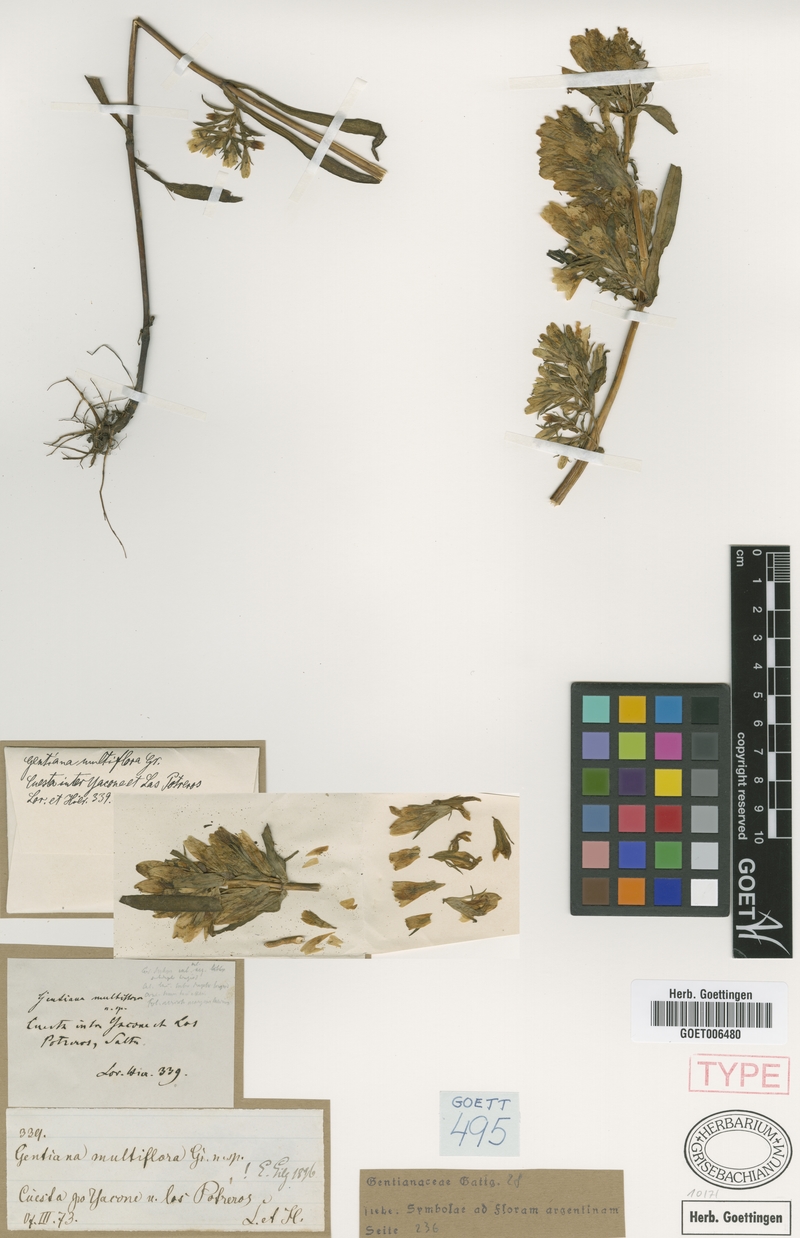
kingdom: Plantae
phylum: Tracheophyta
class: Magnoliopsida
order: Gentianales
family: Gentianaceae
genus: Gentianella
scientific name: Gentianella multiflora
